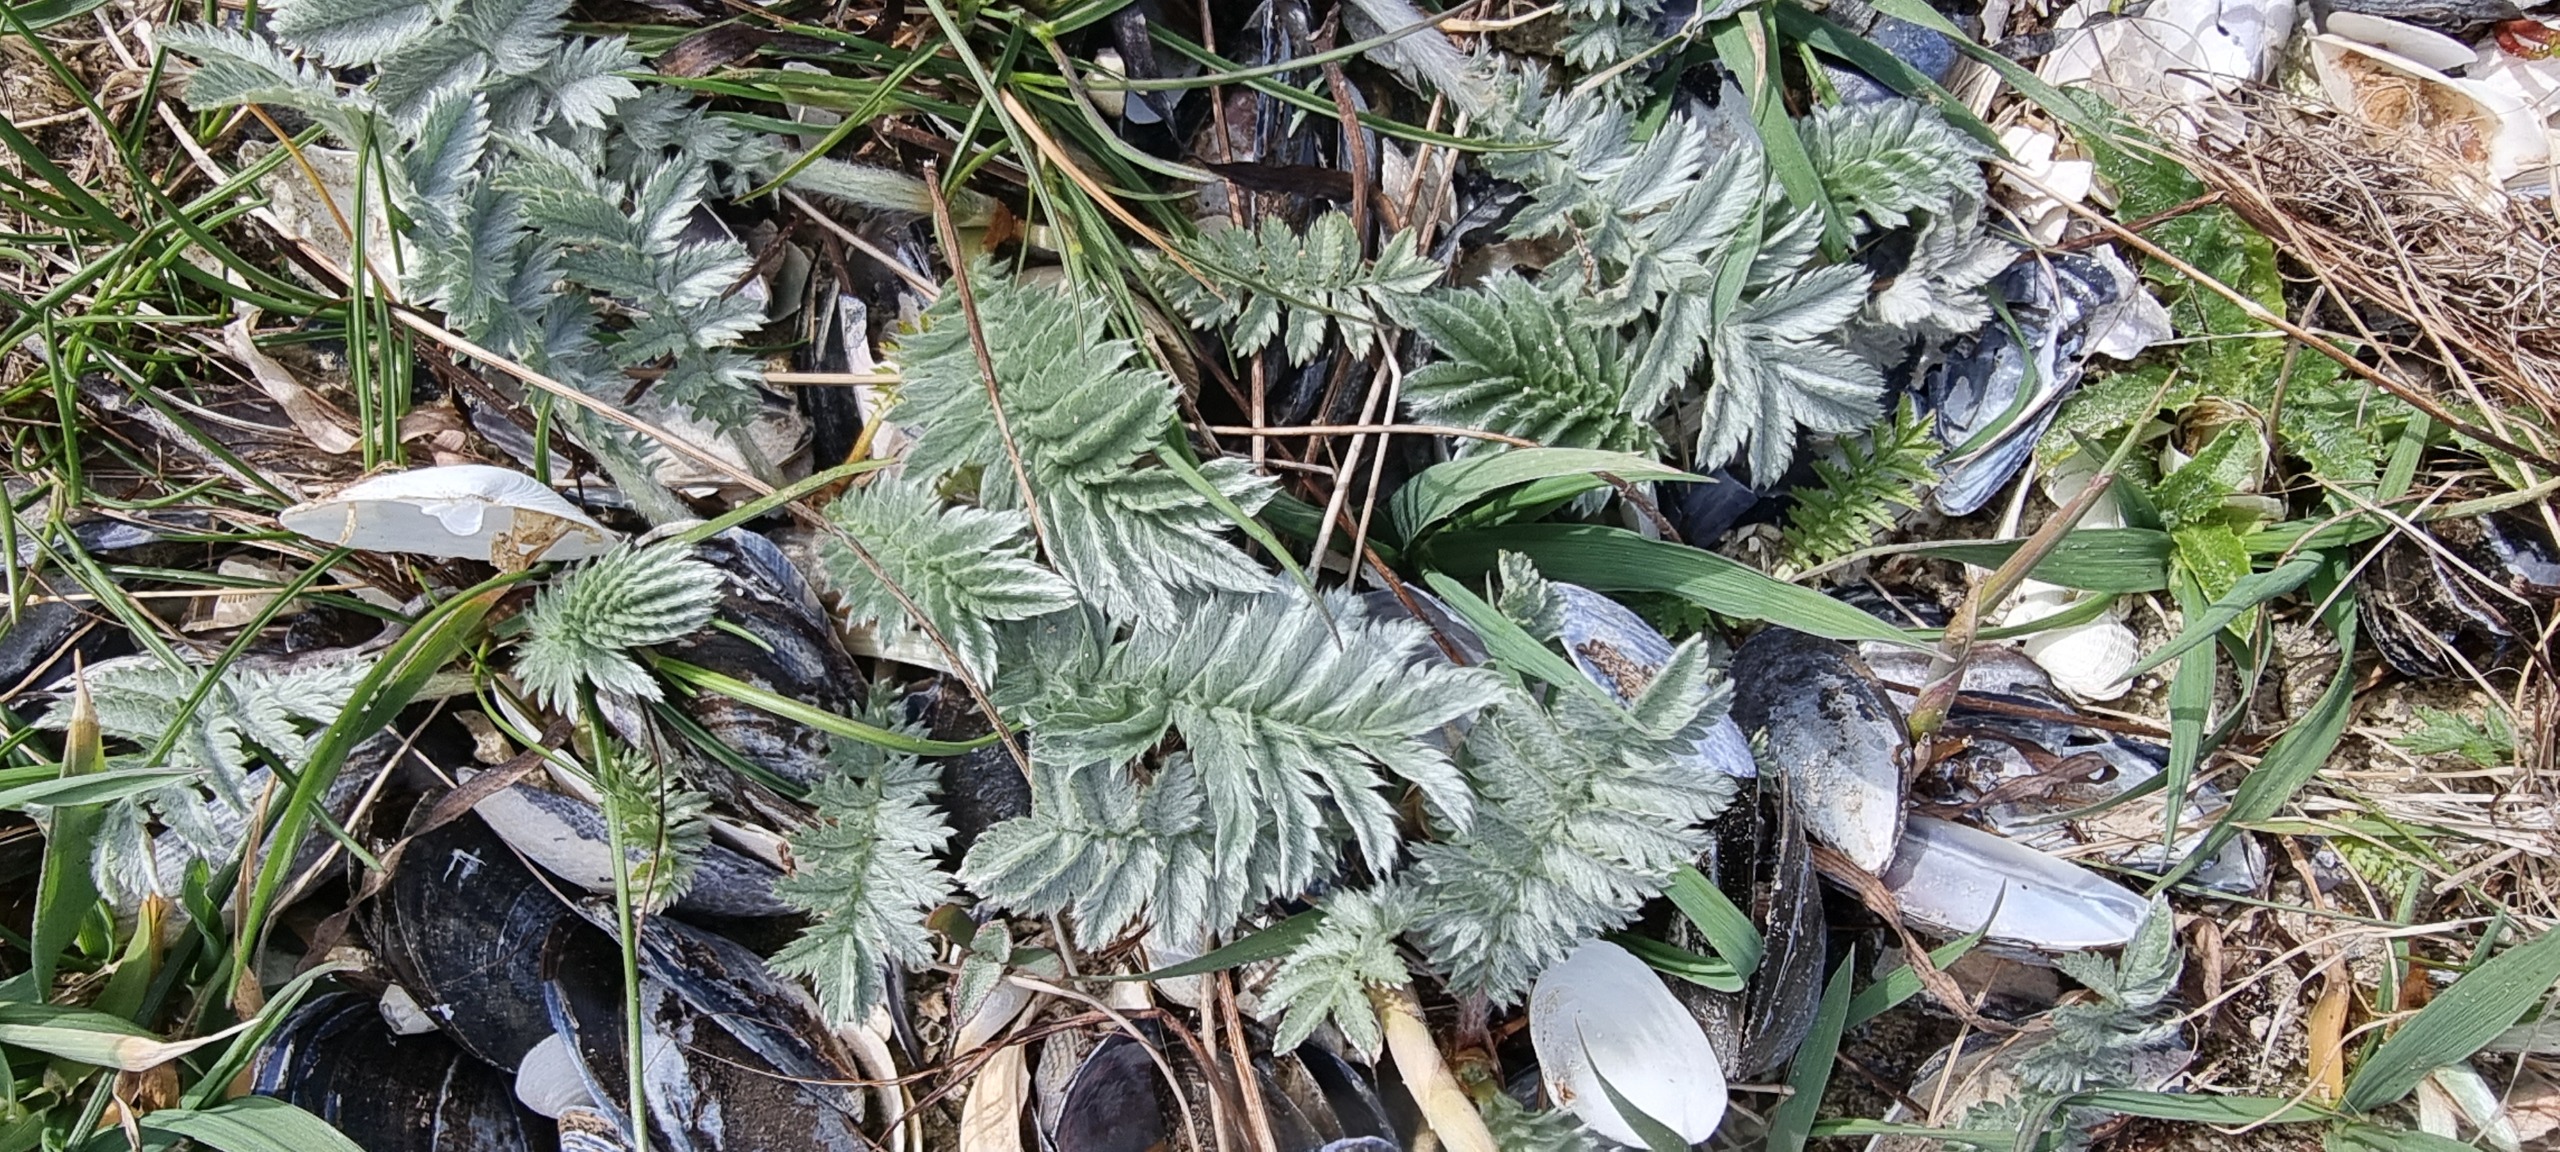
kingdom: Plantae
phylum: Tracheophyta
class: Magnoliopsida
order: Rosales
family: Rosaceae
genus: Argentina
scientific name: Argentina anserina
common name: Gåsepotentil
